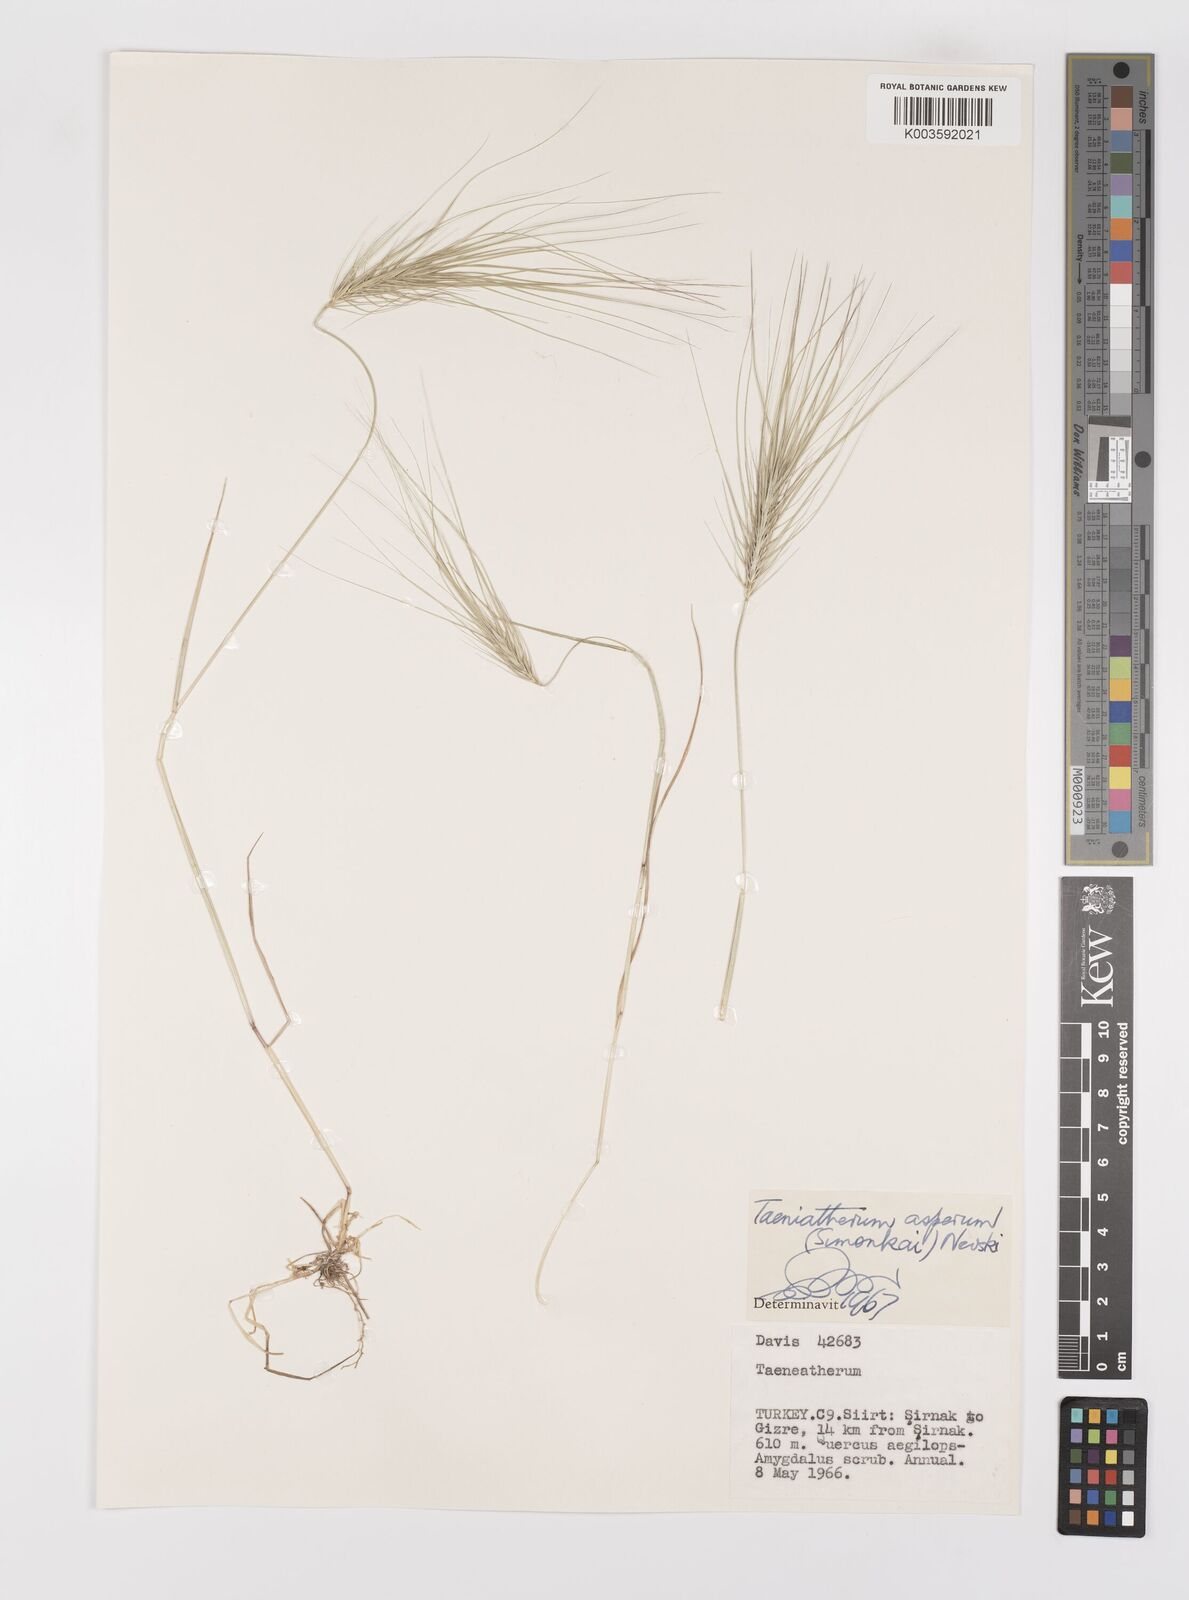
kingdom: Plantae
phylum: Tracheophyta
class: Liliopsida
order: Poales
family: Poaceae
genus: Taeniatherum
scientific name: Taeniatherum caput-medusae
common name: Medusahead
